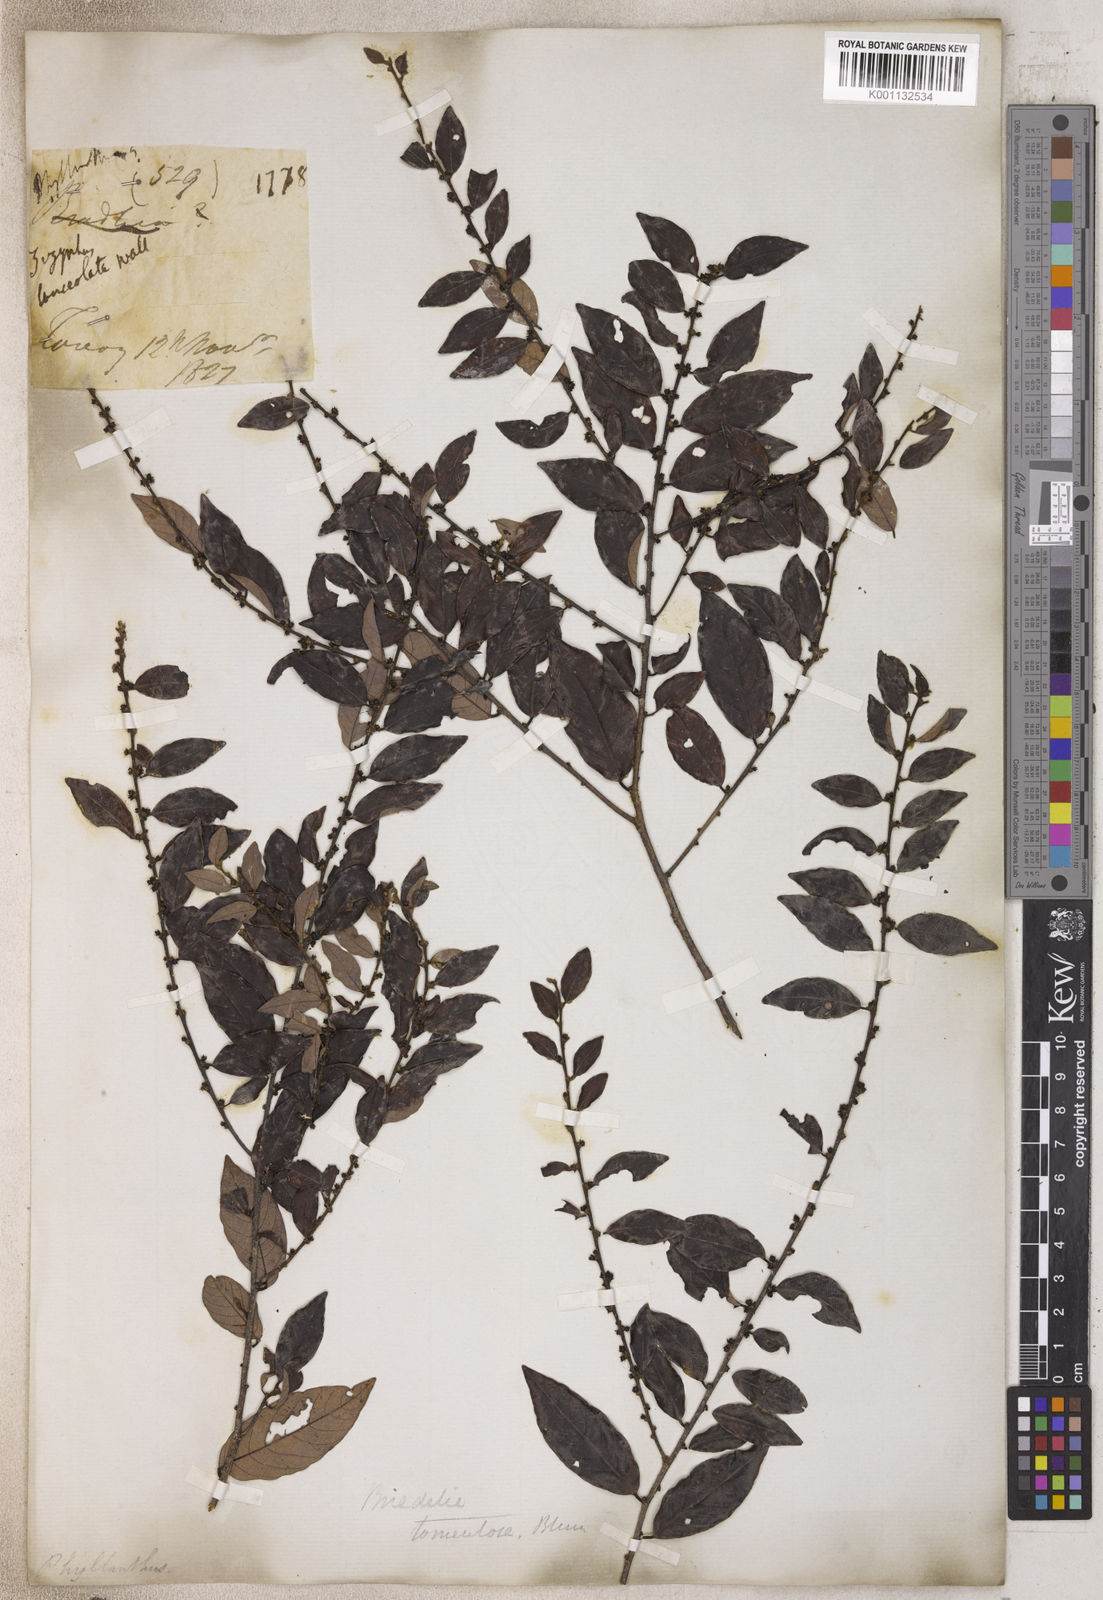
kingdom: Plantae
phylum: Tracheophyta
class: Magnoliopsida
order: Malpighiales
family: Phyllanthaceae
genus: Phyllanthus
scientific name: Phyllanthus
